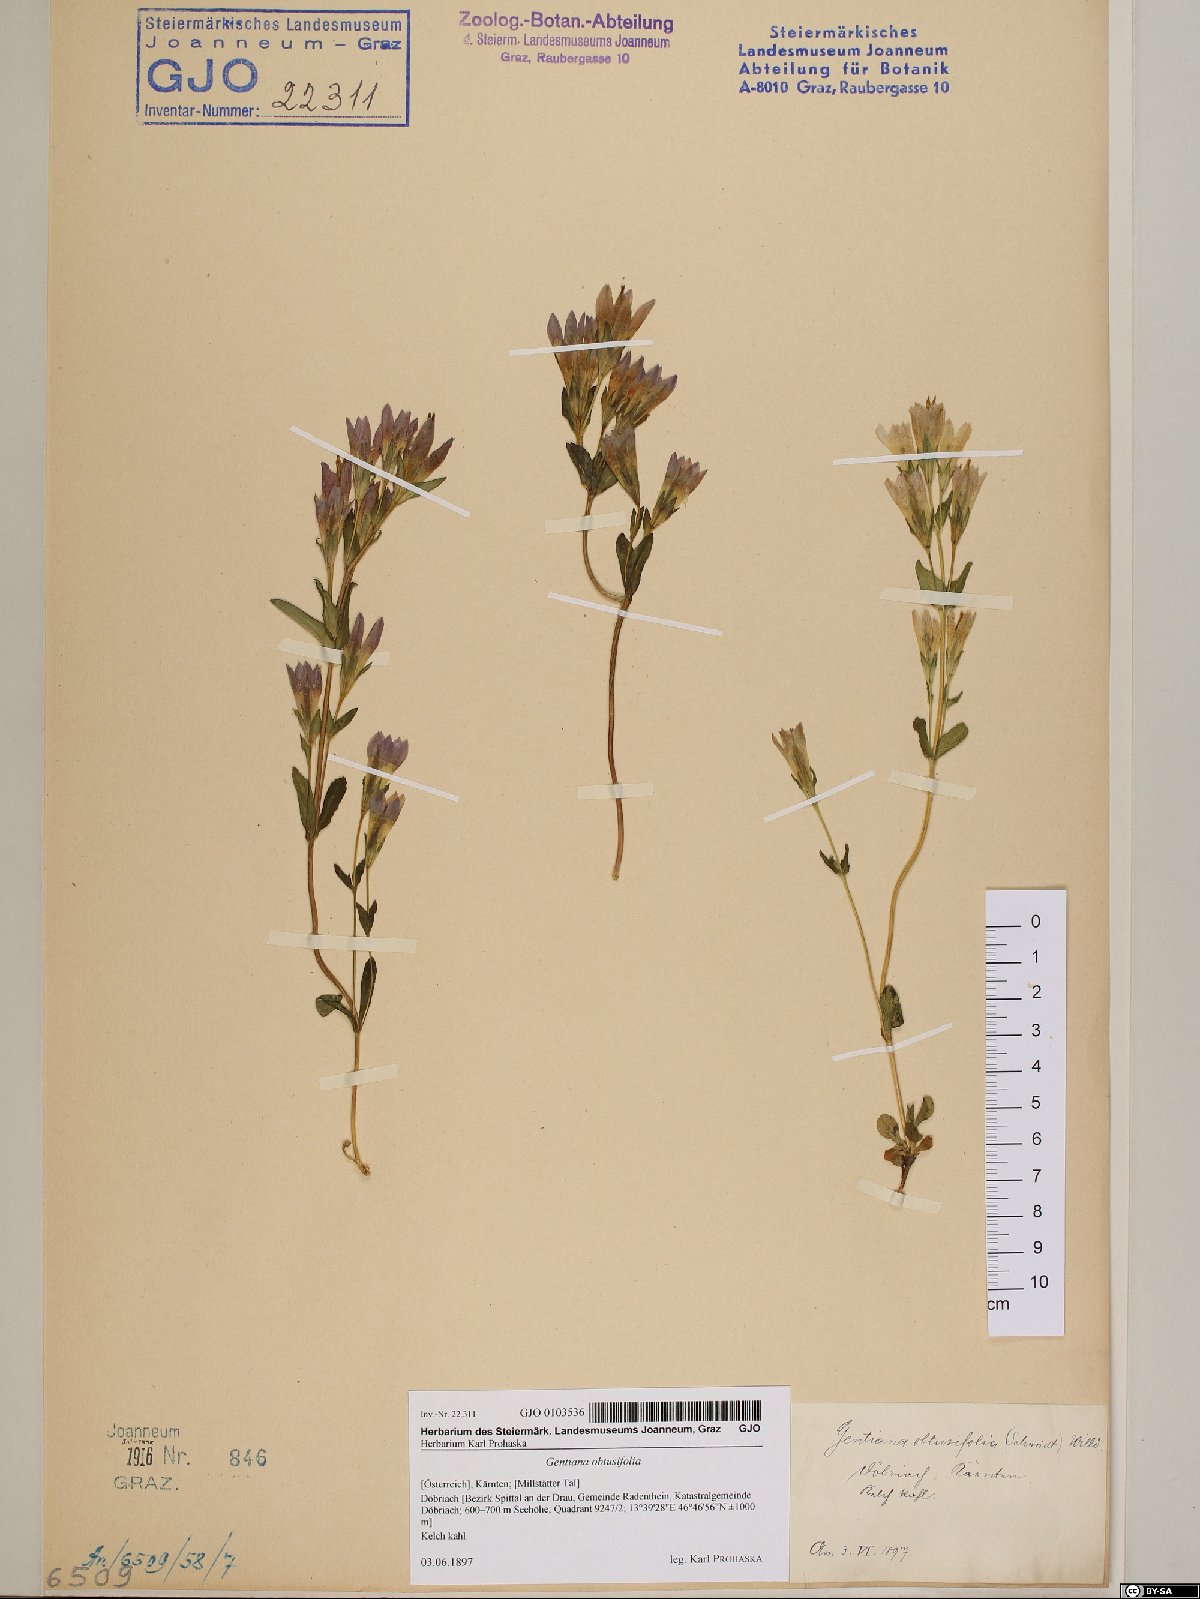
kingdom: Plantae
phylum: Tracheophyta
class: Magnoliopsida
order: Gentianales
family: Gentianaceae
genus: Gentianella
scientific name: Gentianella obtusifolia
